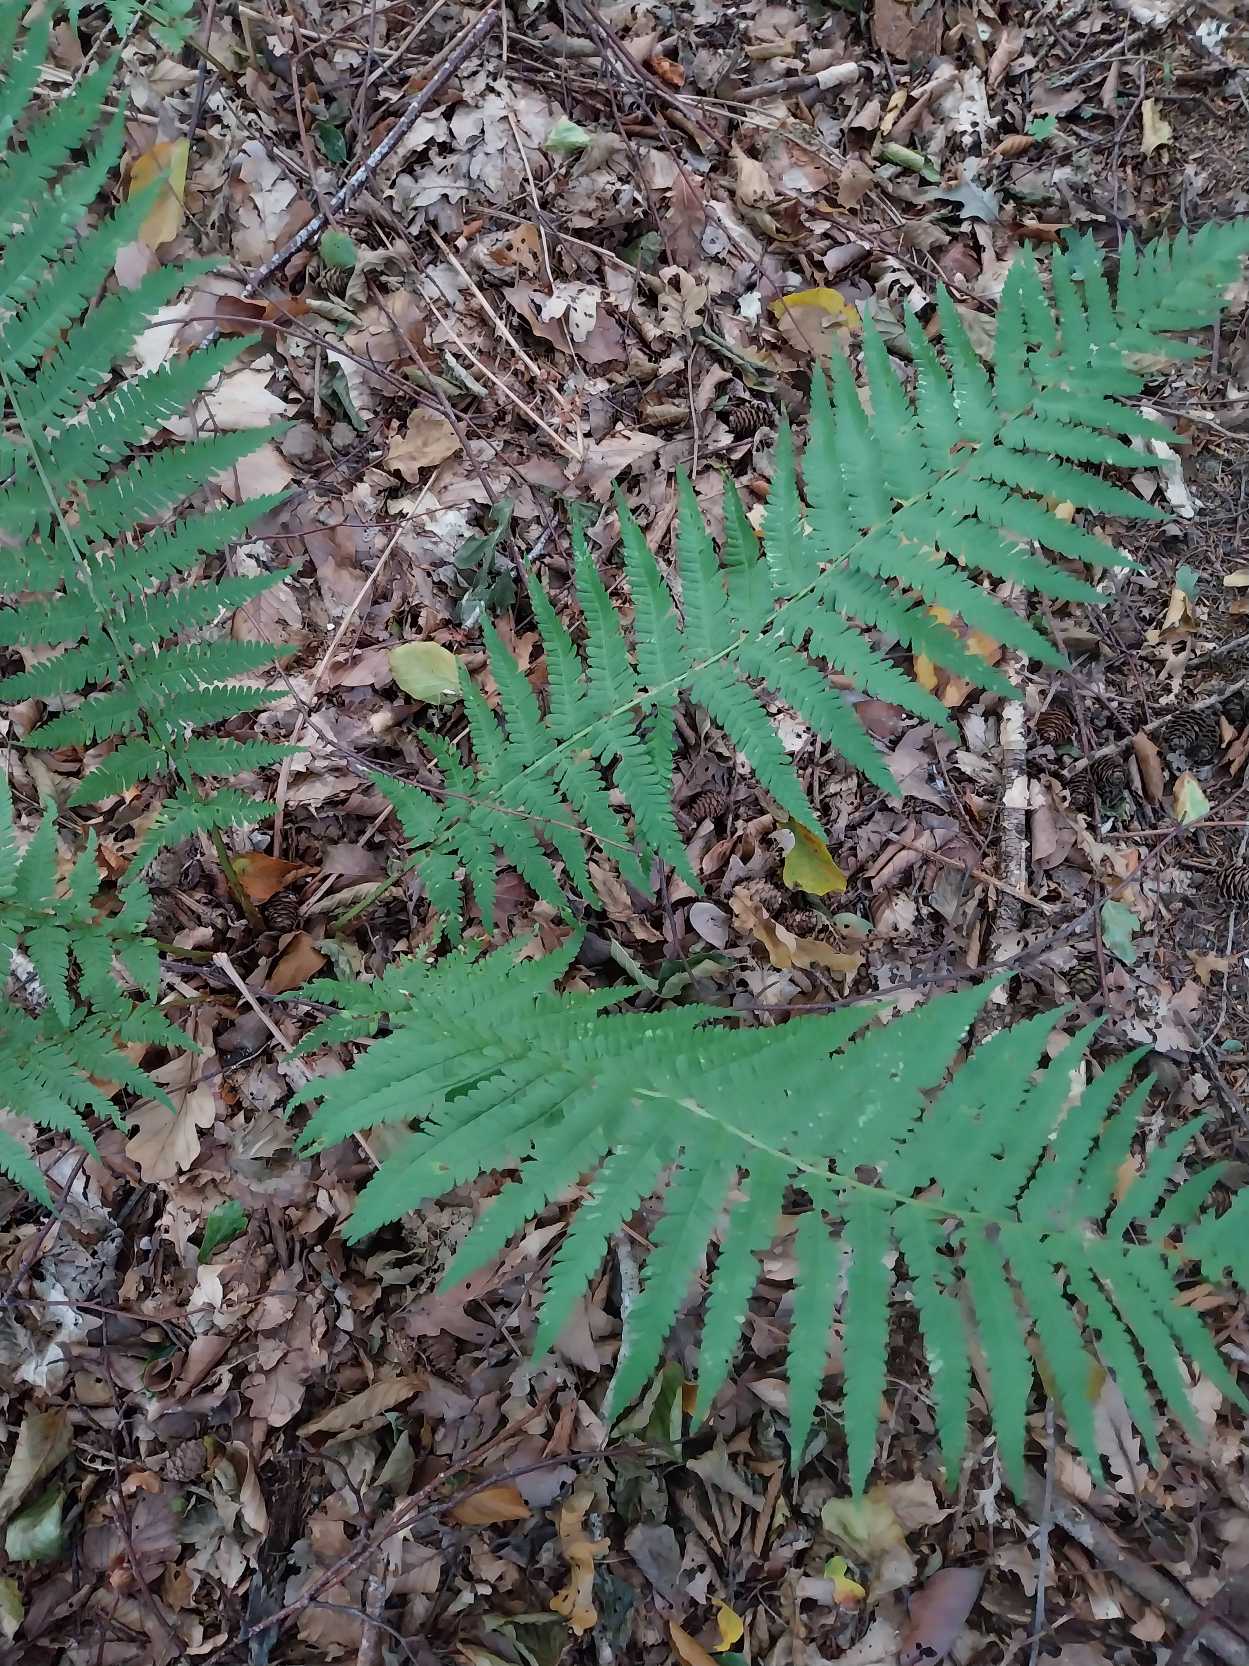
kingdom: Plantae
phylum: Tracheophyta
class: Polypodiopsida
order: Polypodiales
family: Dryopteridaceae
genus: Dryopteris
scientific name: Dryopteris filix-mas
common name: Almindelig mangeløv
